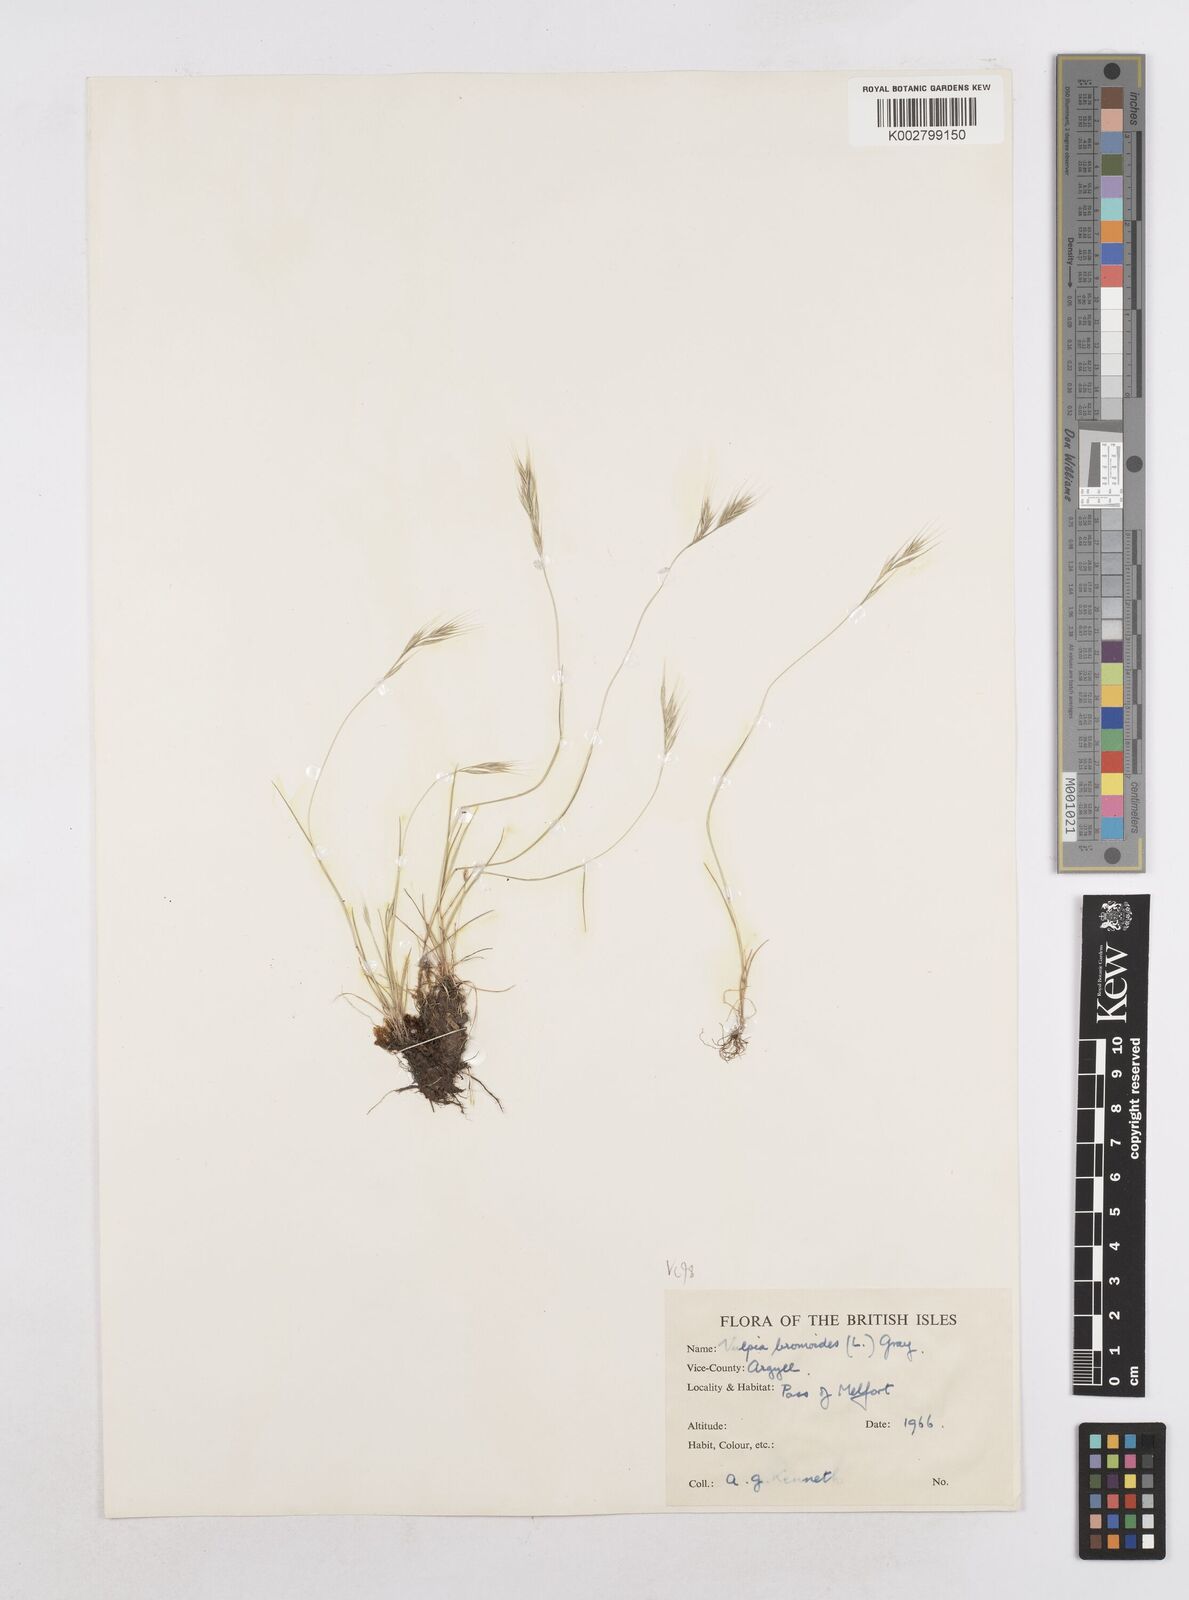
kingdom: Plantae
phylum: Tracheophyta
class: Liliopsida
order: Poales
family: Poaceae
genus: Festuca
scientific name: Festuca bromoides
